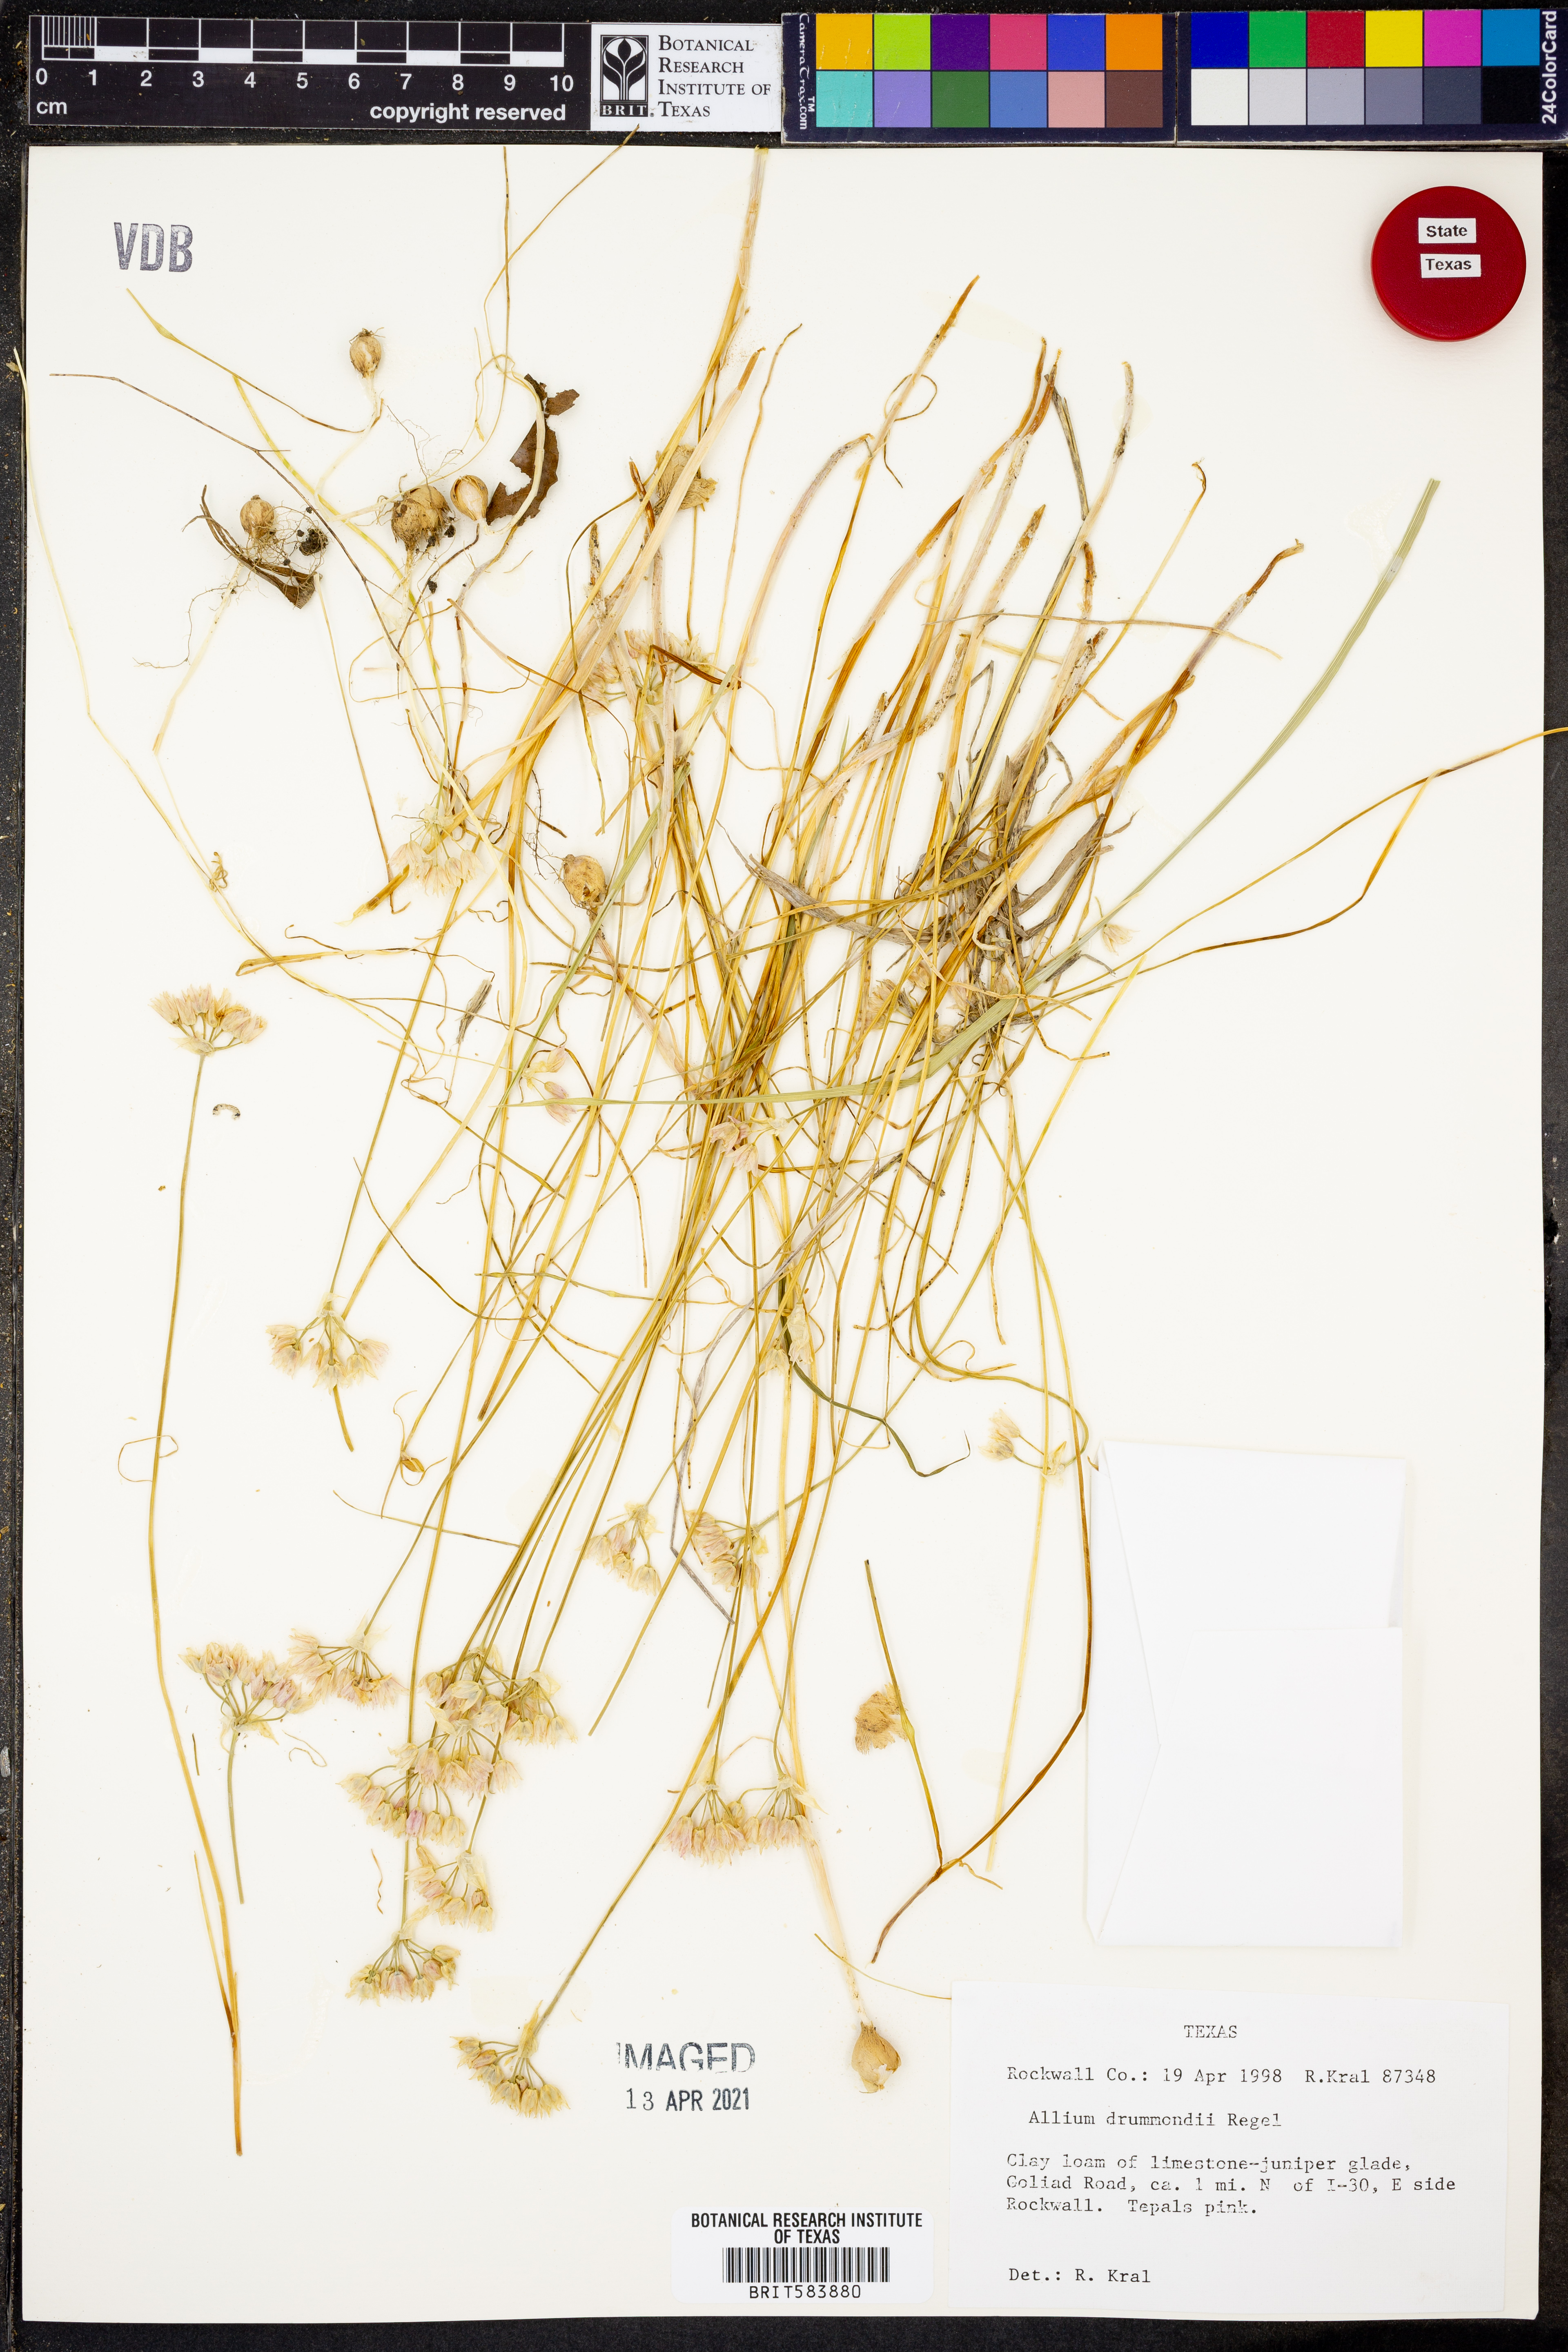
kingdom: Plantae
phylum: Tracheophyta
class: Liliopsida
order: Asparagales
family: Amaryllidaceae
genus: Allium
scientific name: Allium drummondii
